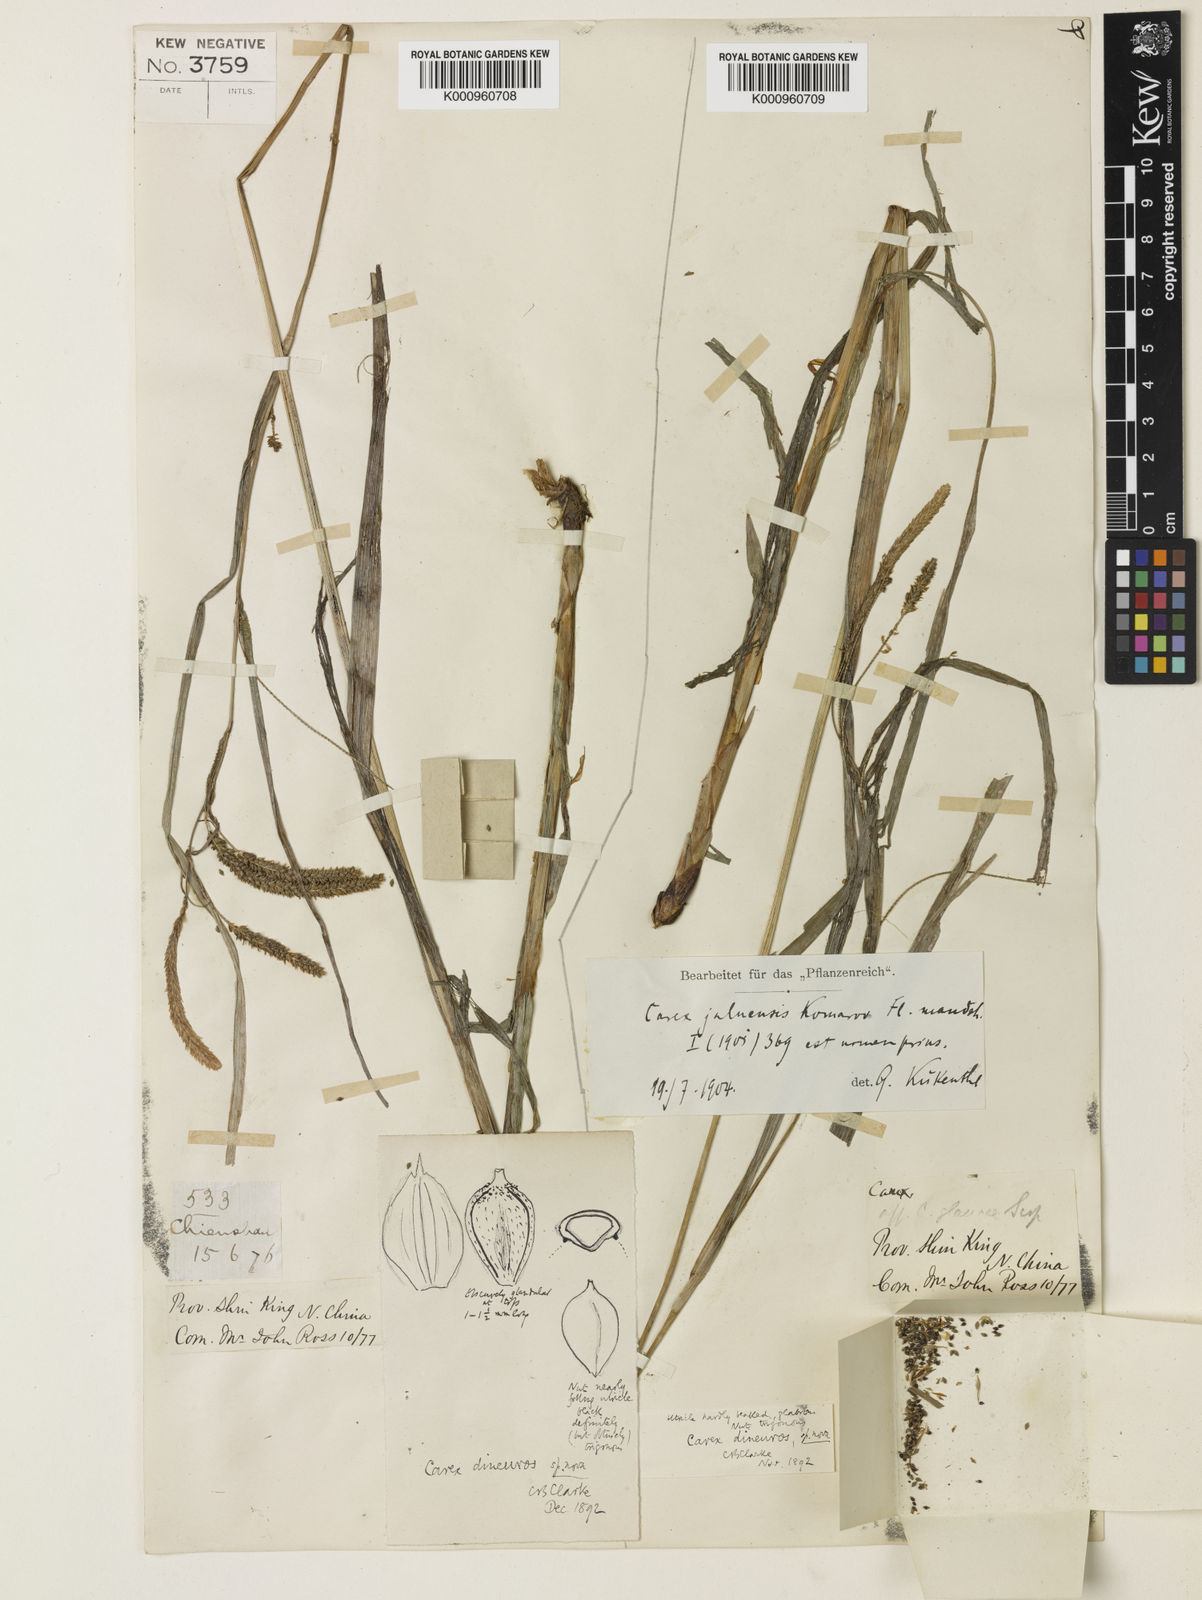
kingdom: Plantae
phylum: Tracheophyta
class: Liliopsida
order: Poales
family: Cyperaceae
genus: Carex
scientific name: Carex jaluensis
